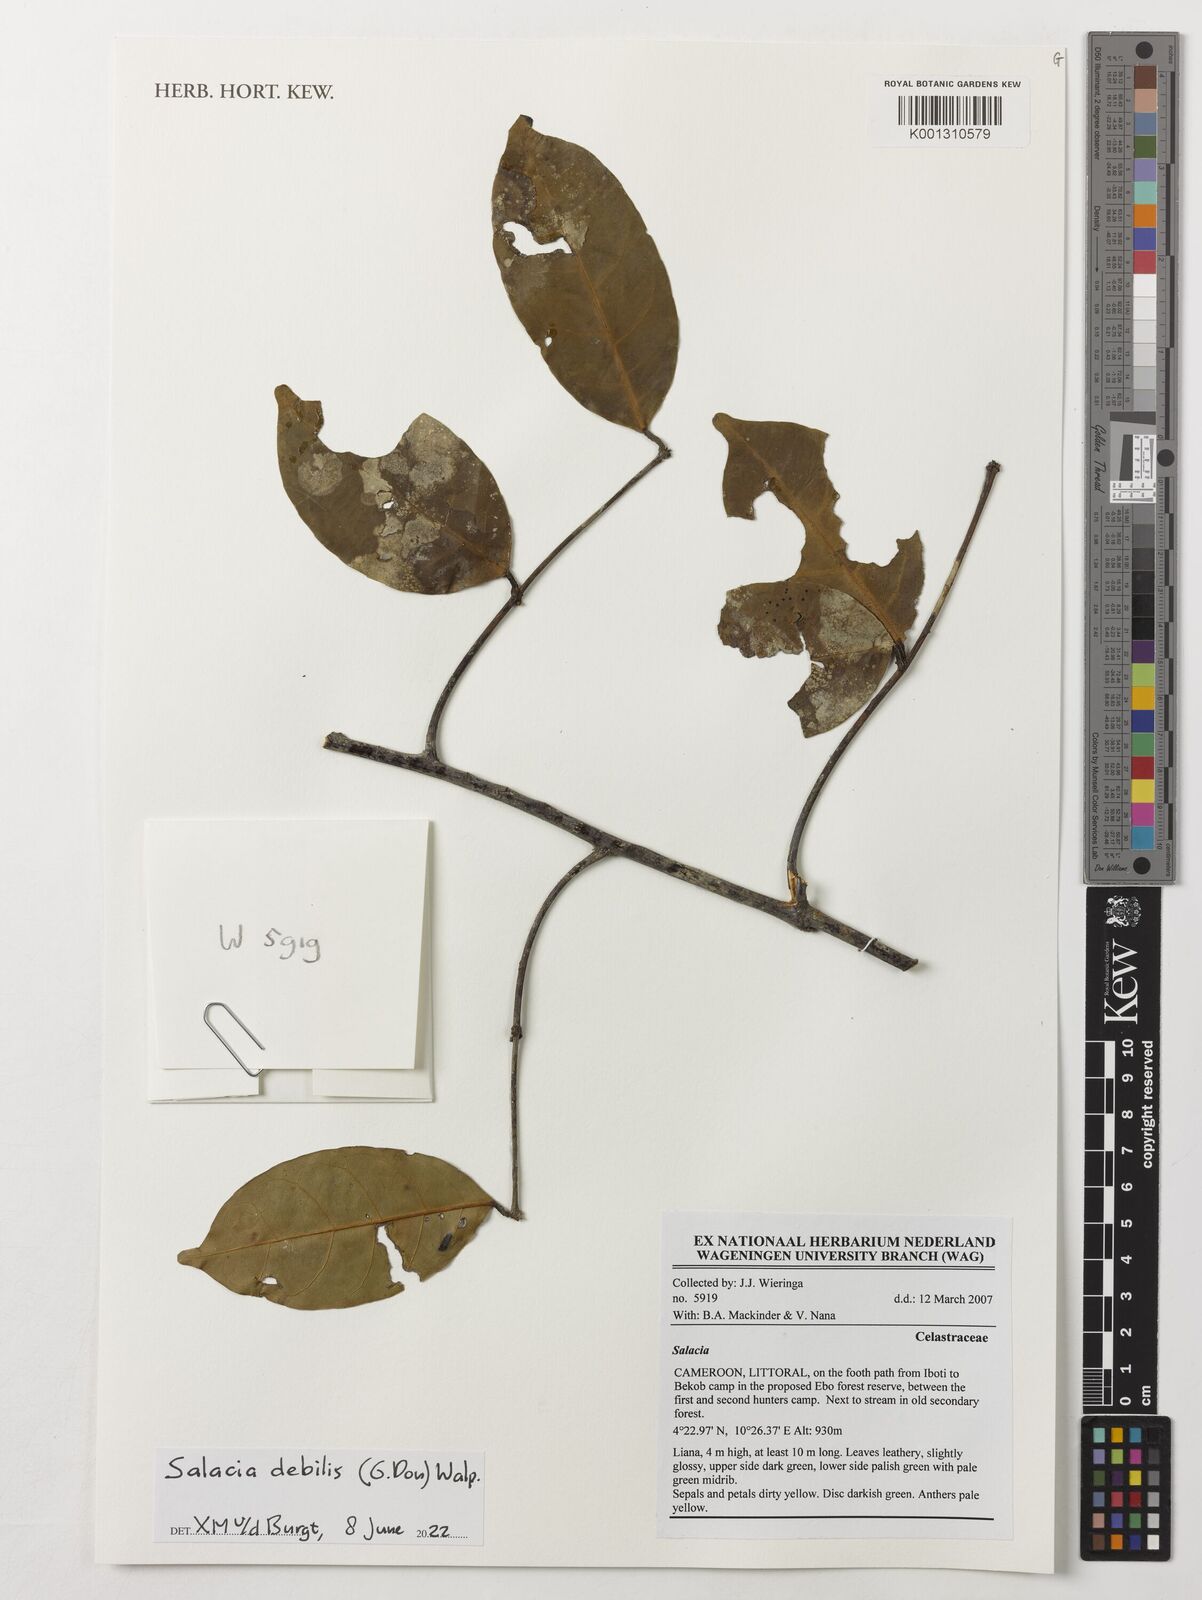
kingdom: Plantae
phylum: Tracheophyta
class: Magnoliopsida
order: Celastrales
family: Celastraceae
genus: Salacia
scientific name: Salacia debilis
